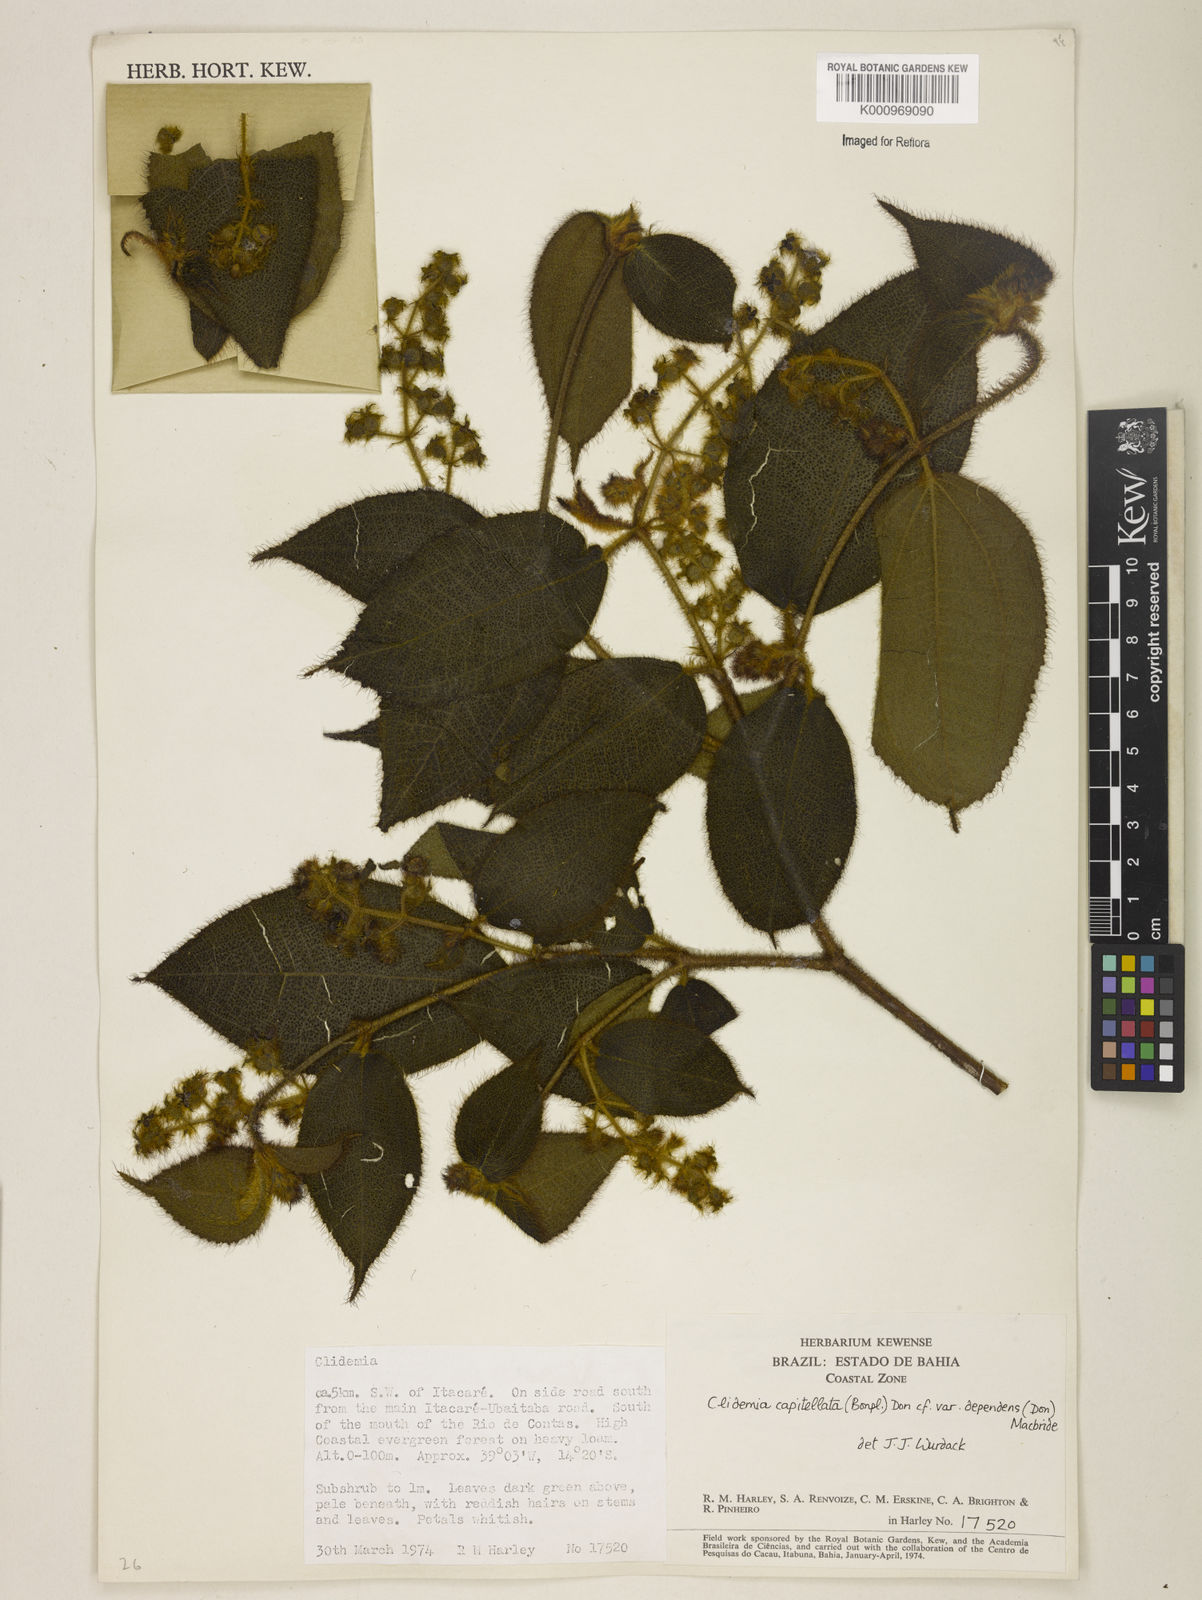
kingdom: Plantae
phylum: Tracheophyta
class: Magnoliopsida
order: Myrtales
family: Melastomataceae
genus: Miconia
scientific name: Miconia dependens
